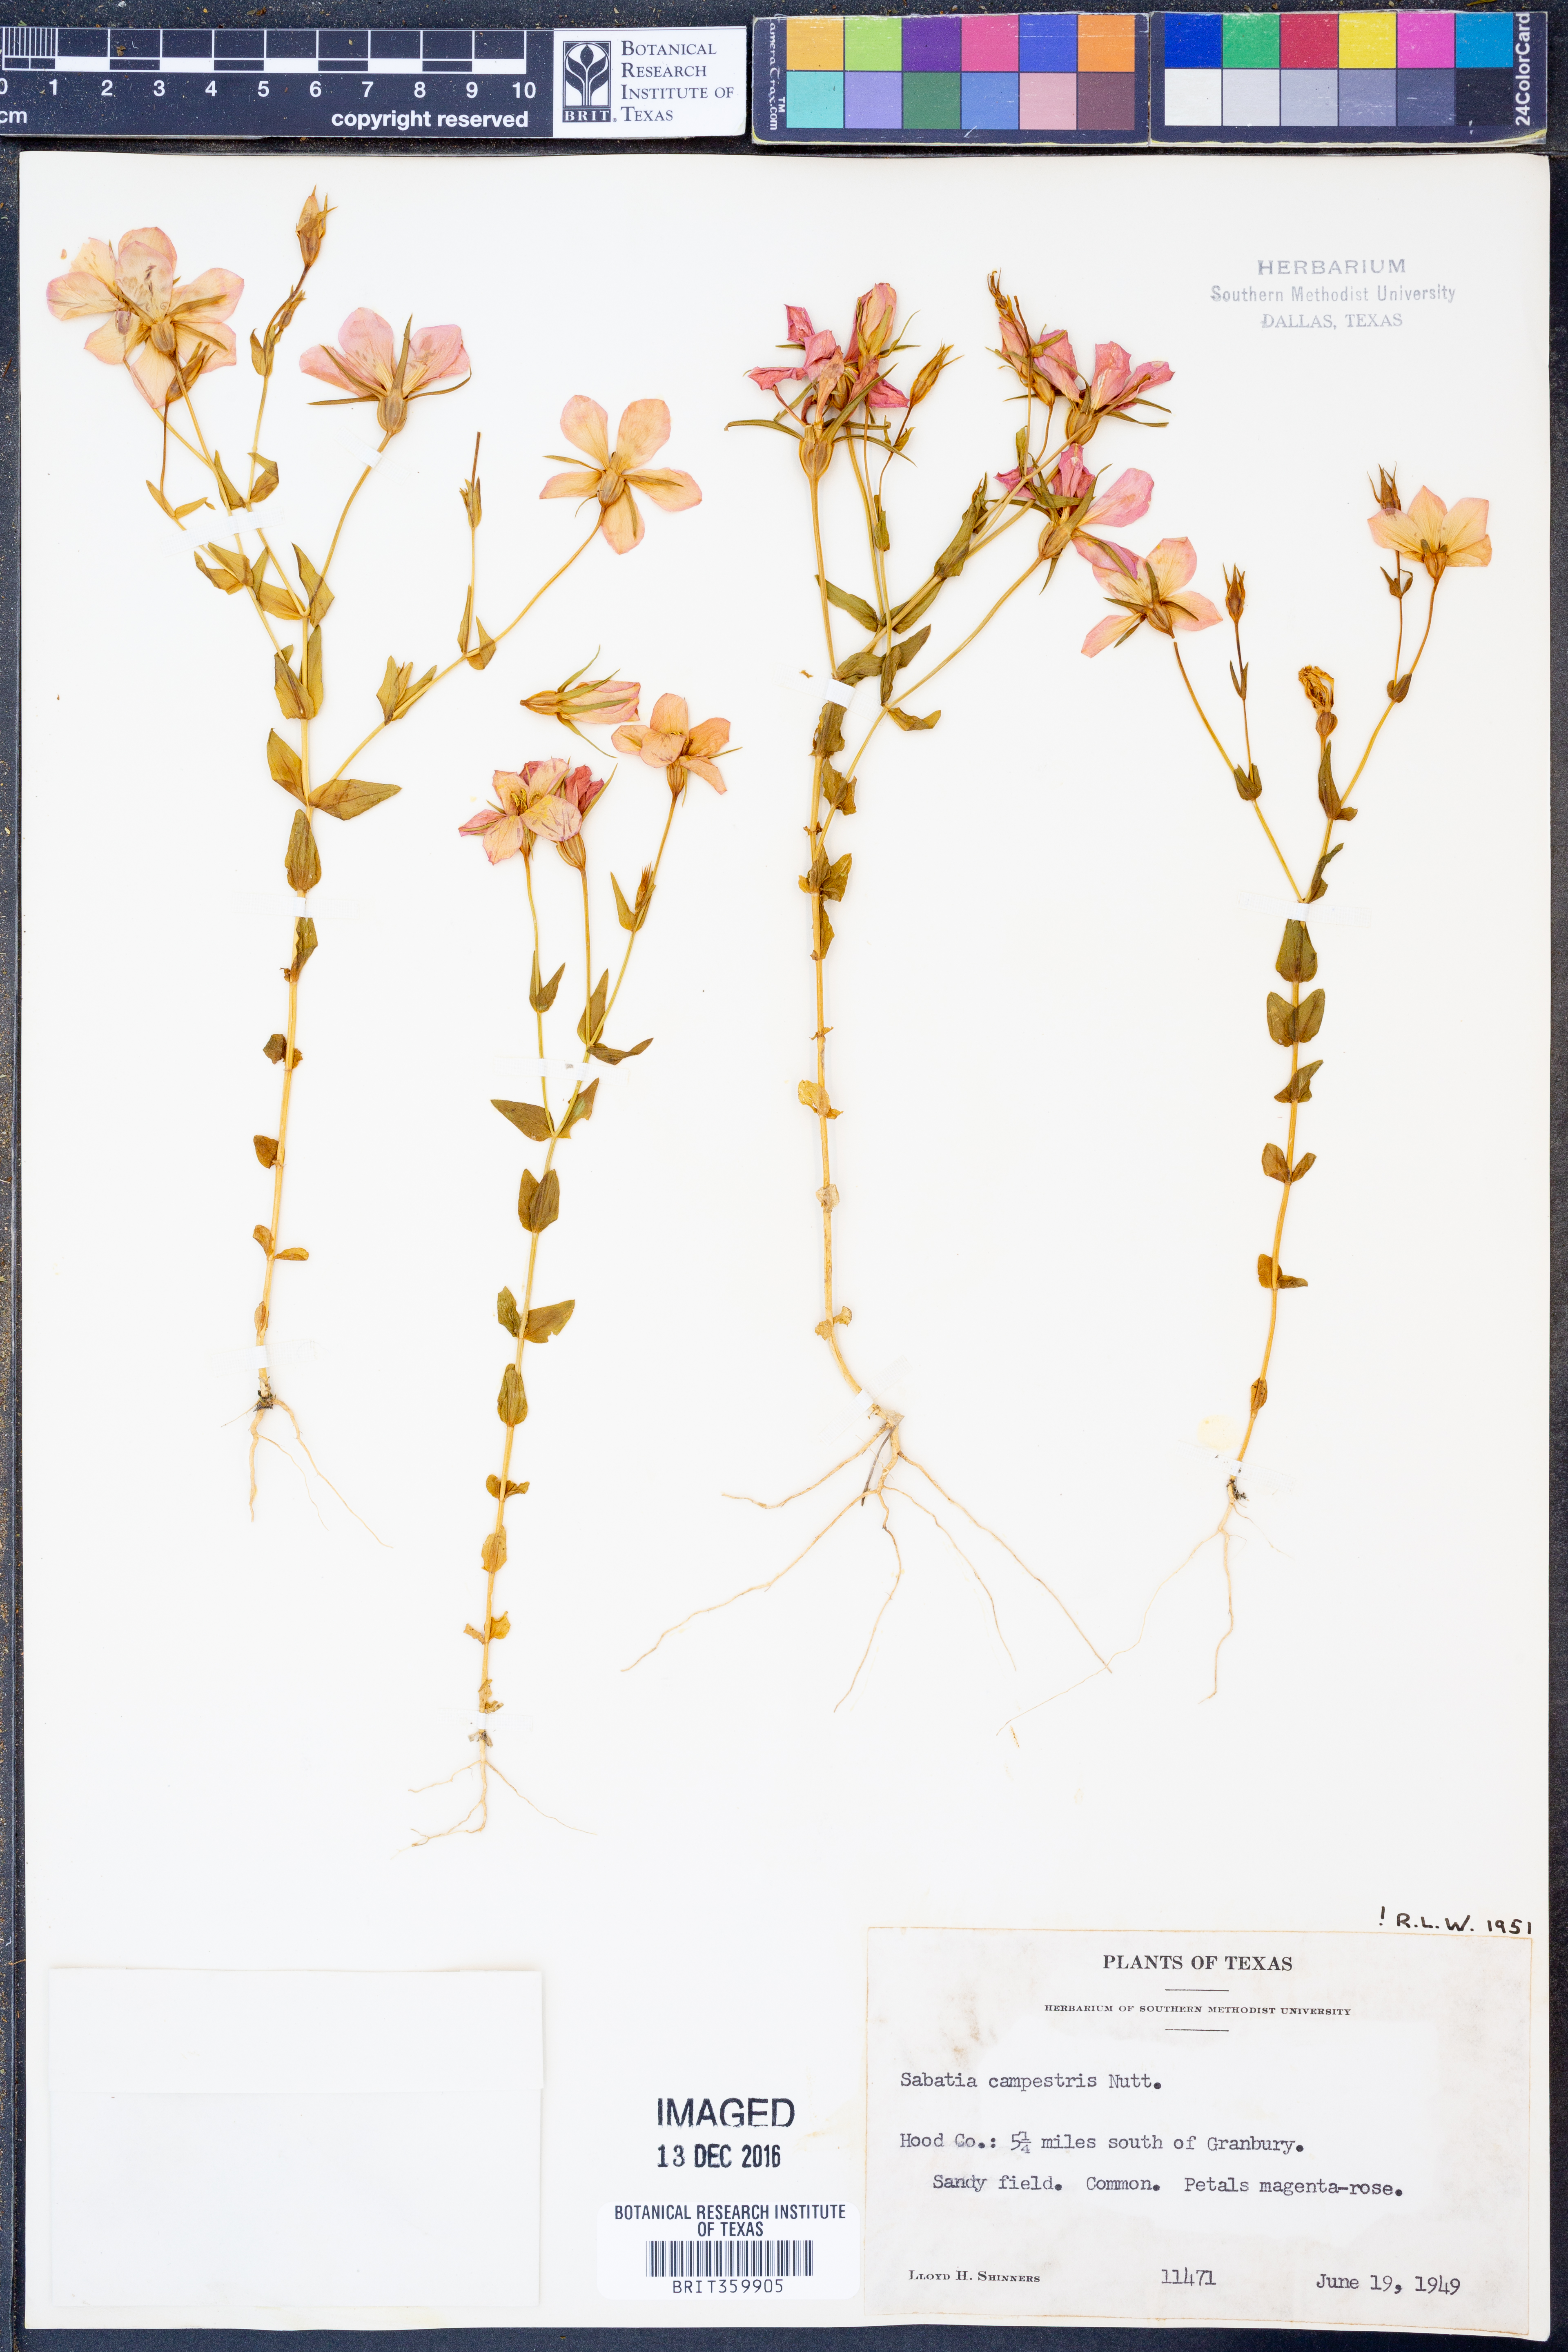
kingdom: Plantae
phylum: Tracheophyta
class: Magnoliopsida
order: Gentianales
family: Gentianaceae
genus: Sabatia
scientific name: Sabatia campestris
